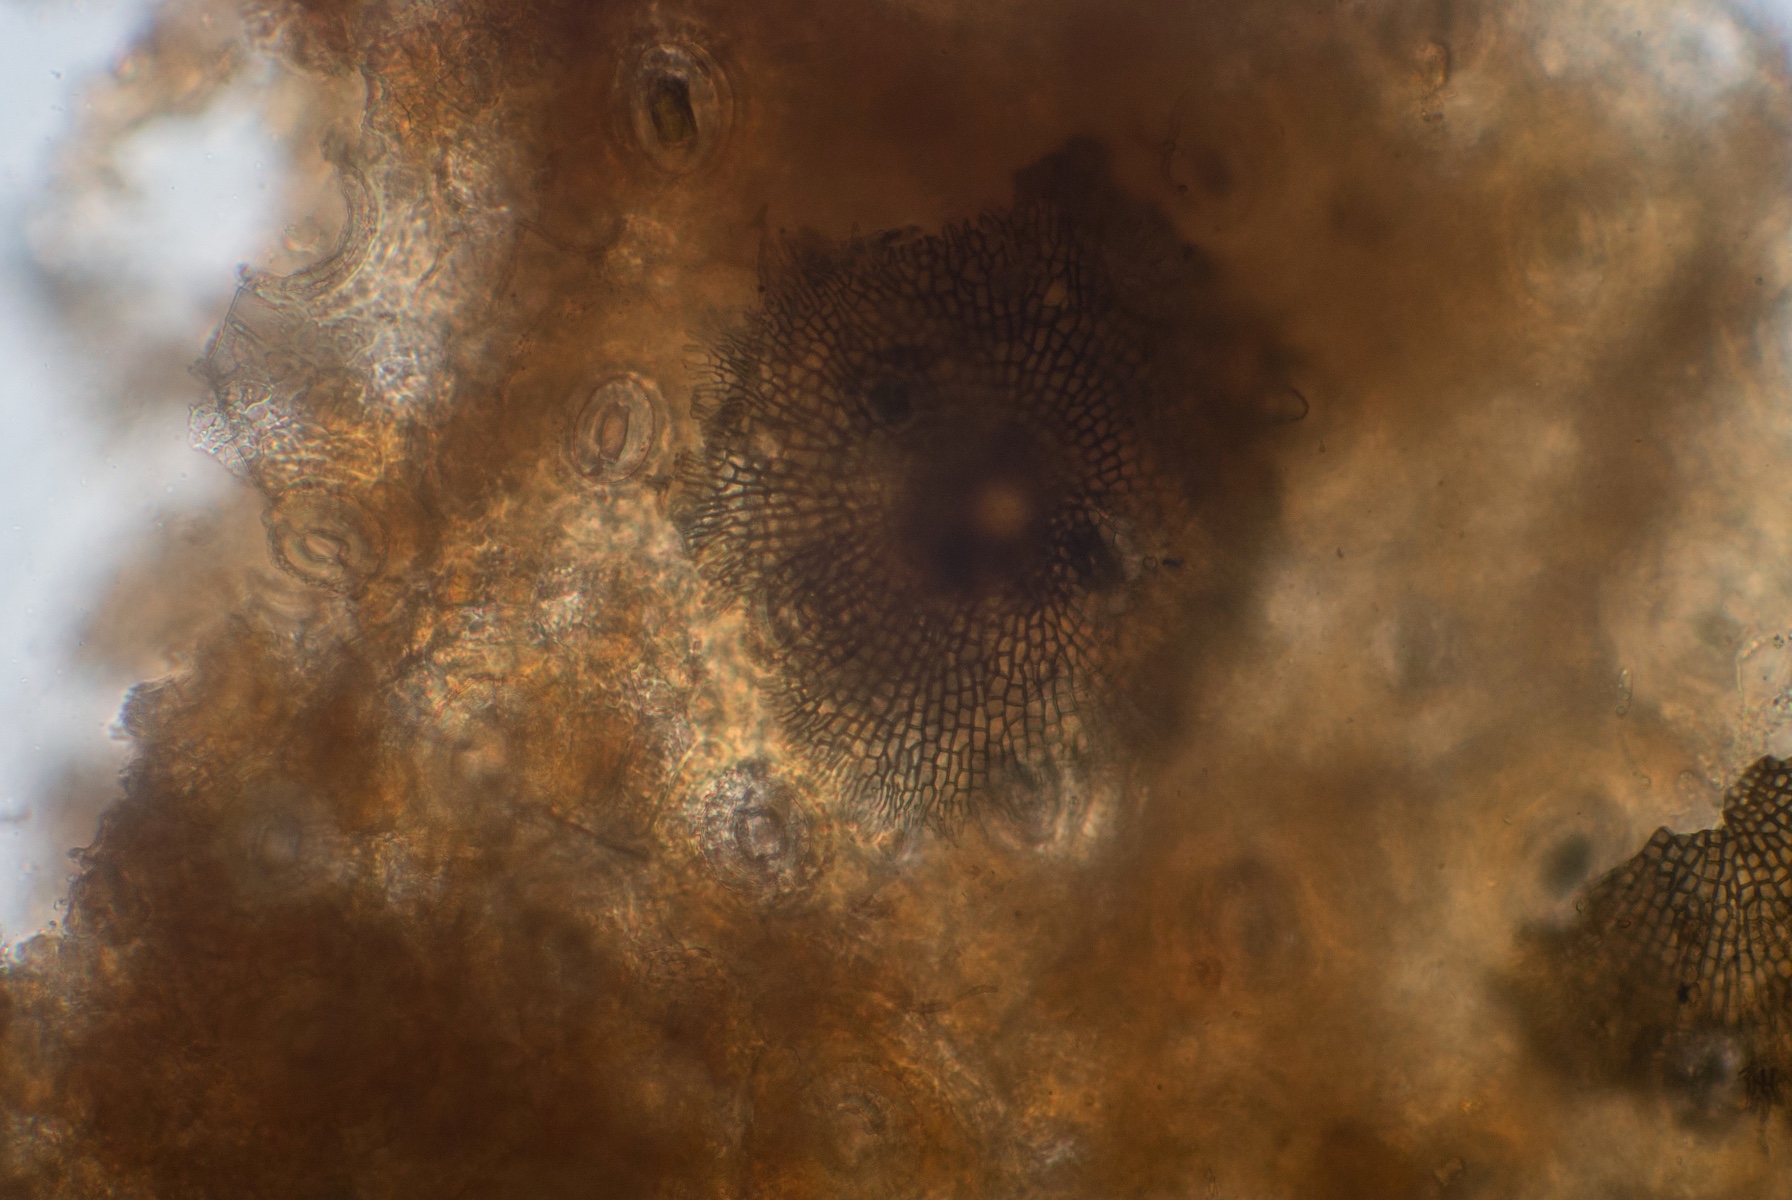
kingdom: Fungi
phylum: Ascomycota
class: Dothideomycetes
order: Microthyriales
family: Microthyriaceae
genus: Microthyrium
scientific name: Microthyrium ciliatum
